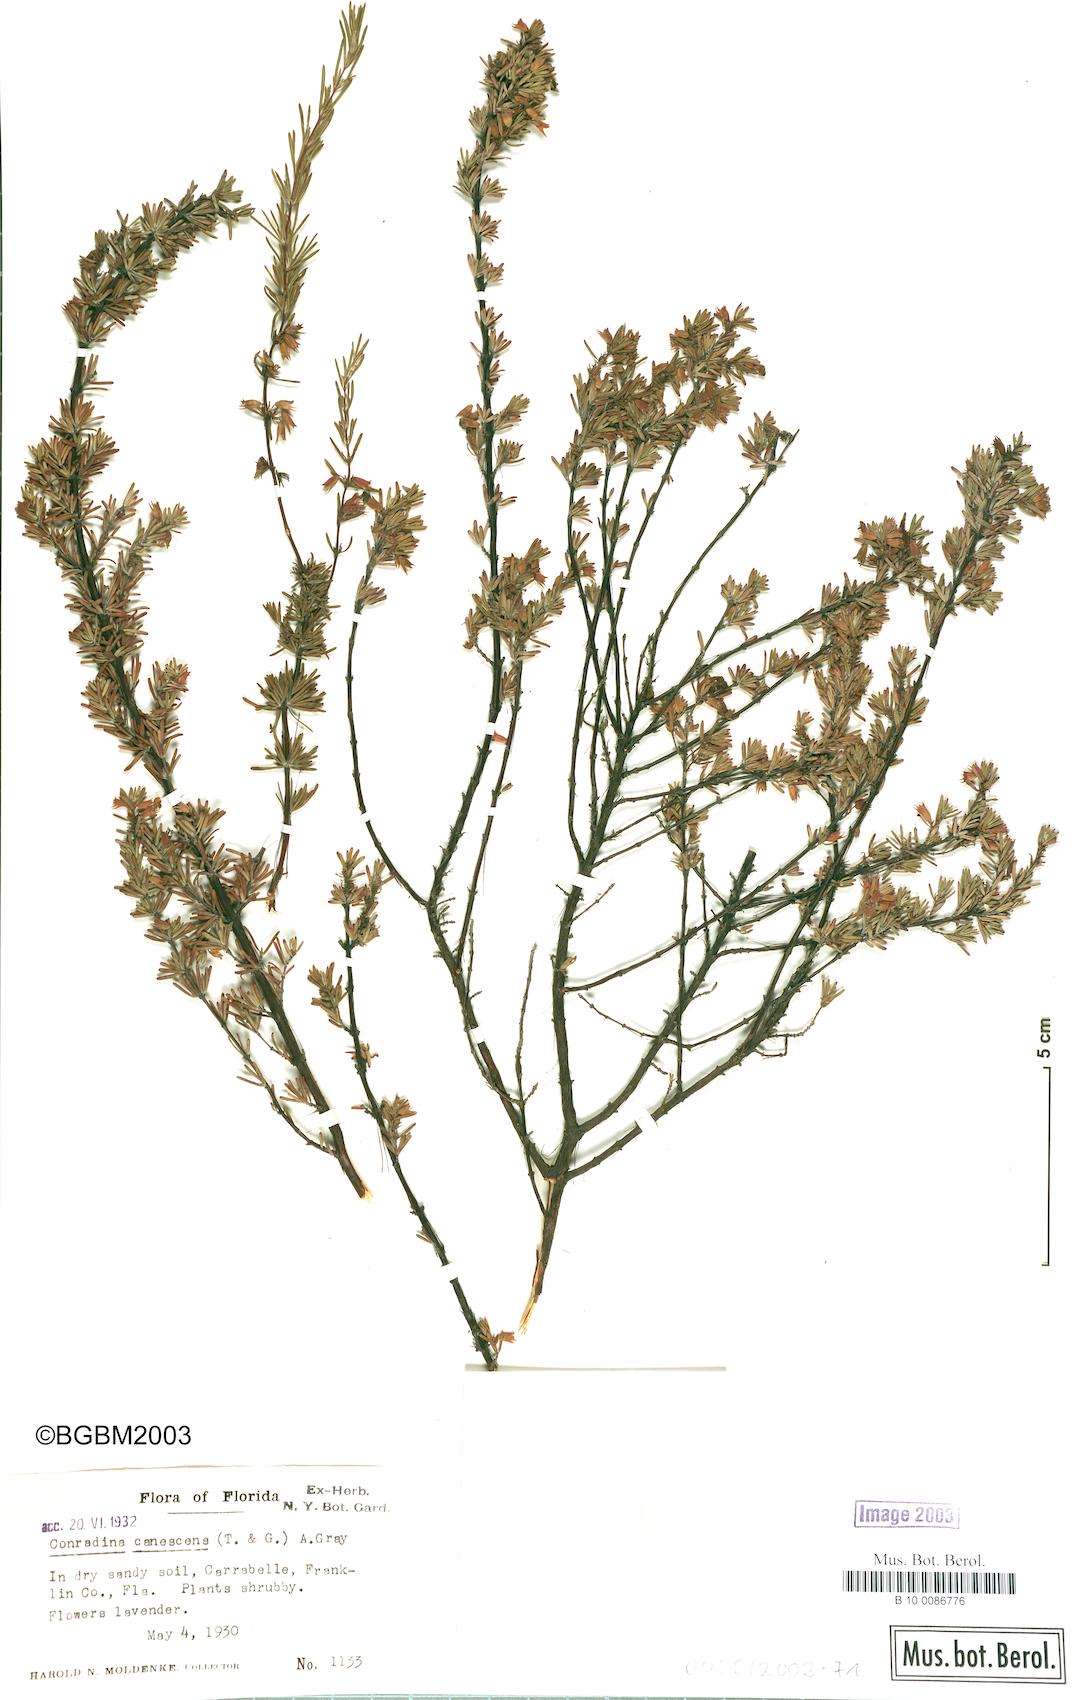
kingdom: Plantae
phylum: Tracheophyta
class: Magnoliopsida
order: Lamiales
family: Lamiaceae
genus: Conradina
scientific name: Conradina canescens
